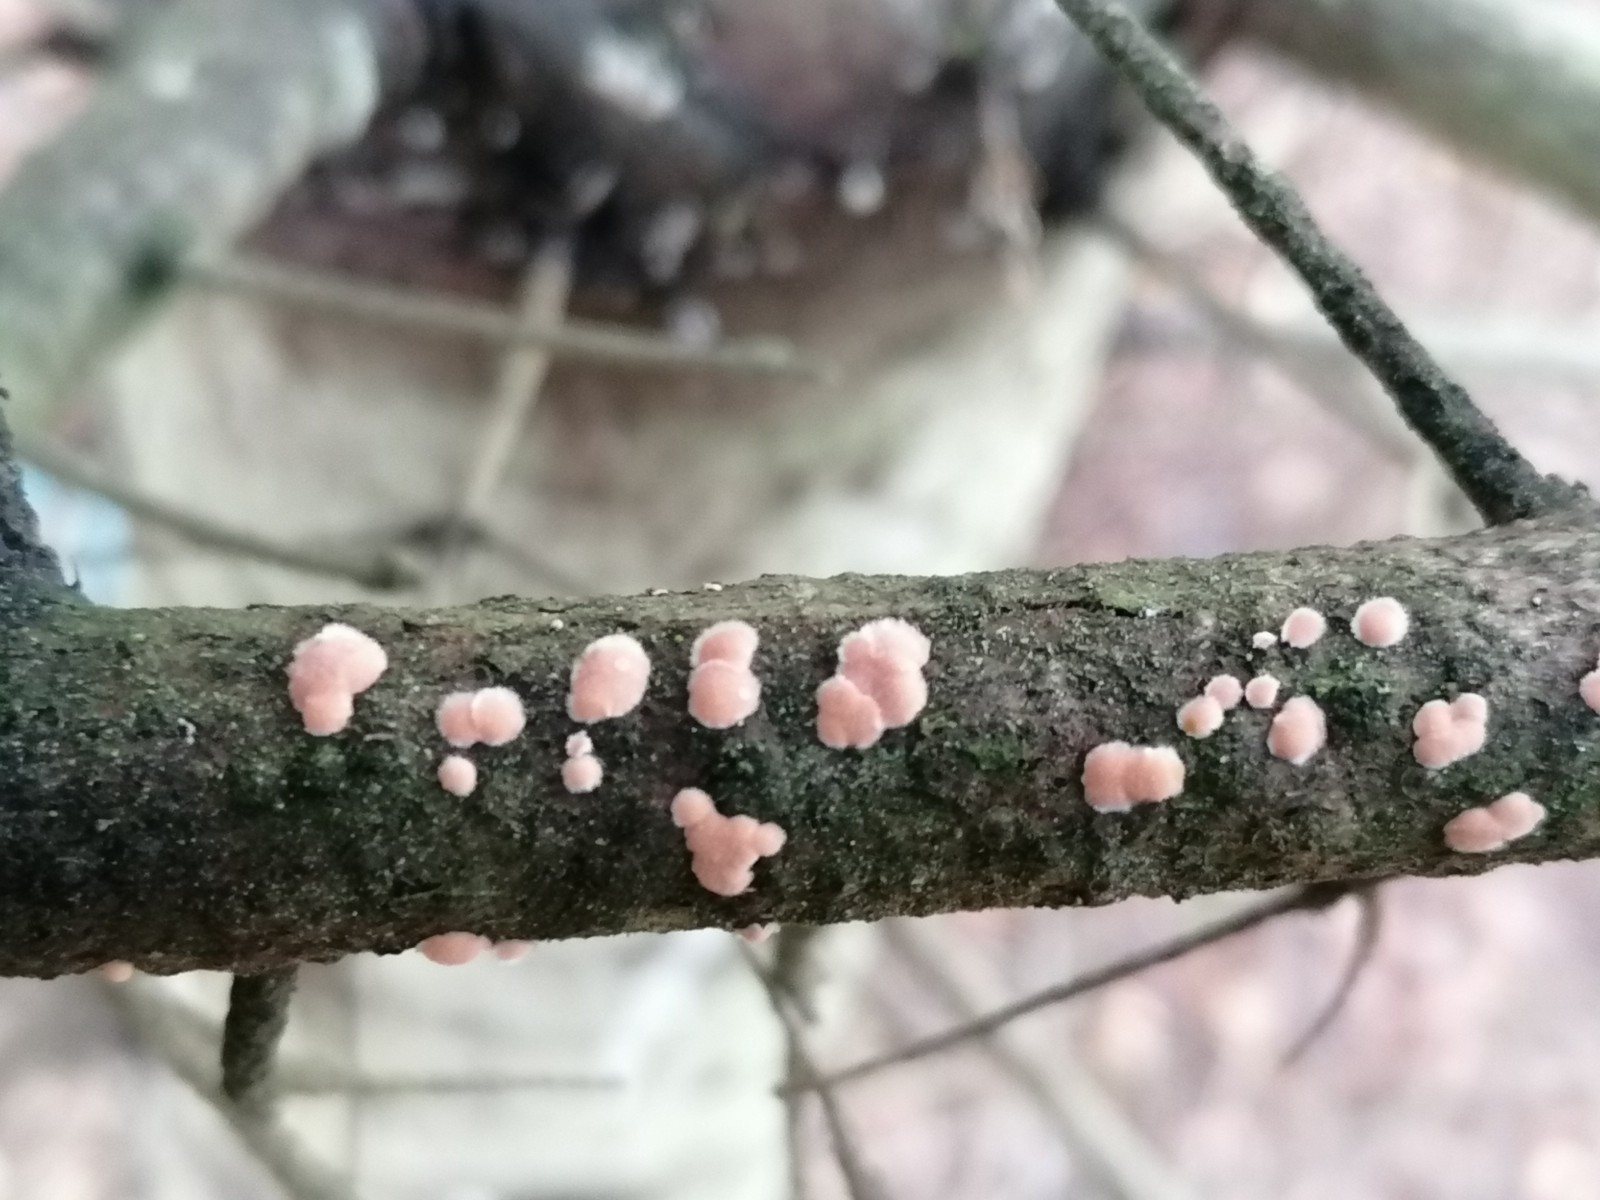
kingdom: Fungi
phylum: Basidiomycota
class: Agaricomycetes
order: Russulales
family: Stereaceae
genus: Aleurodiscus
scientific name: Aleurodiscus amorphus
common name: orange skiveskorpe
